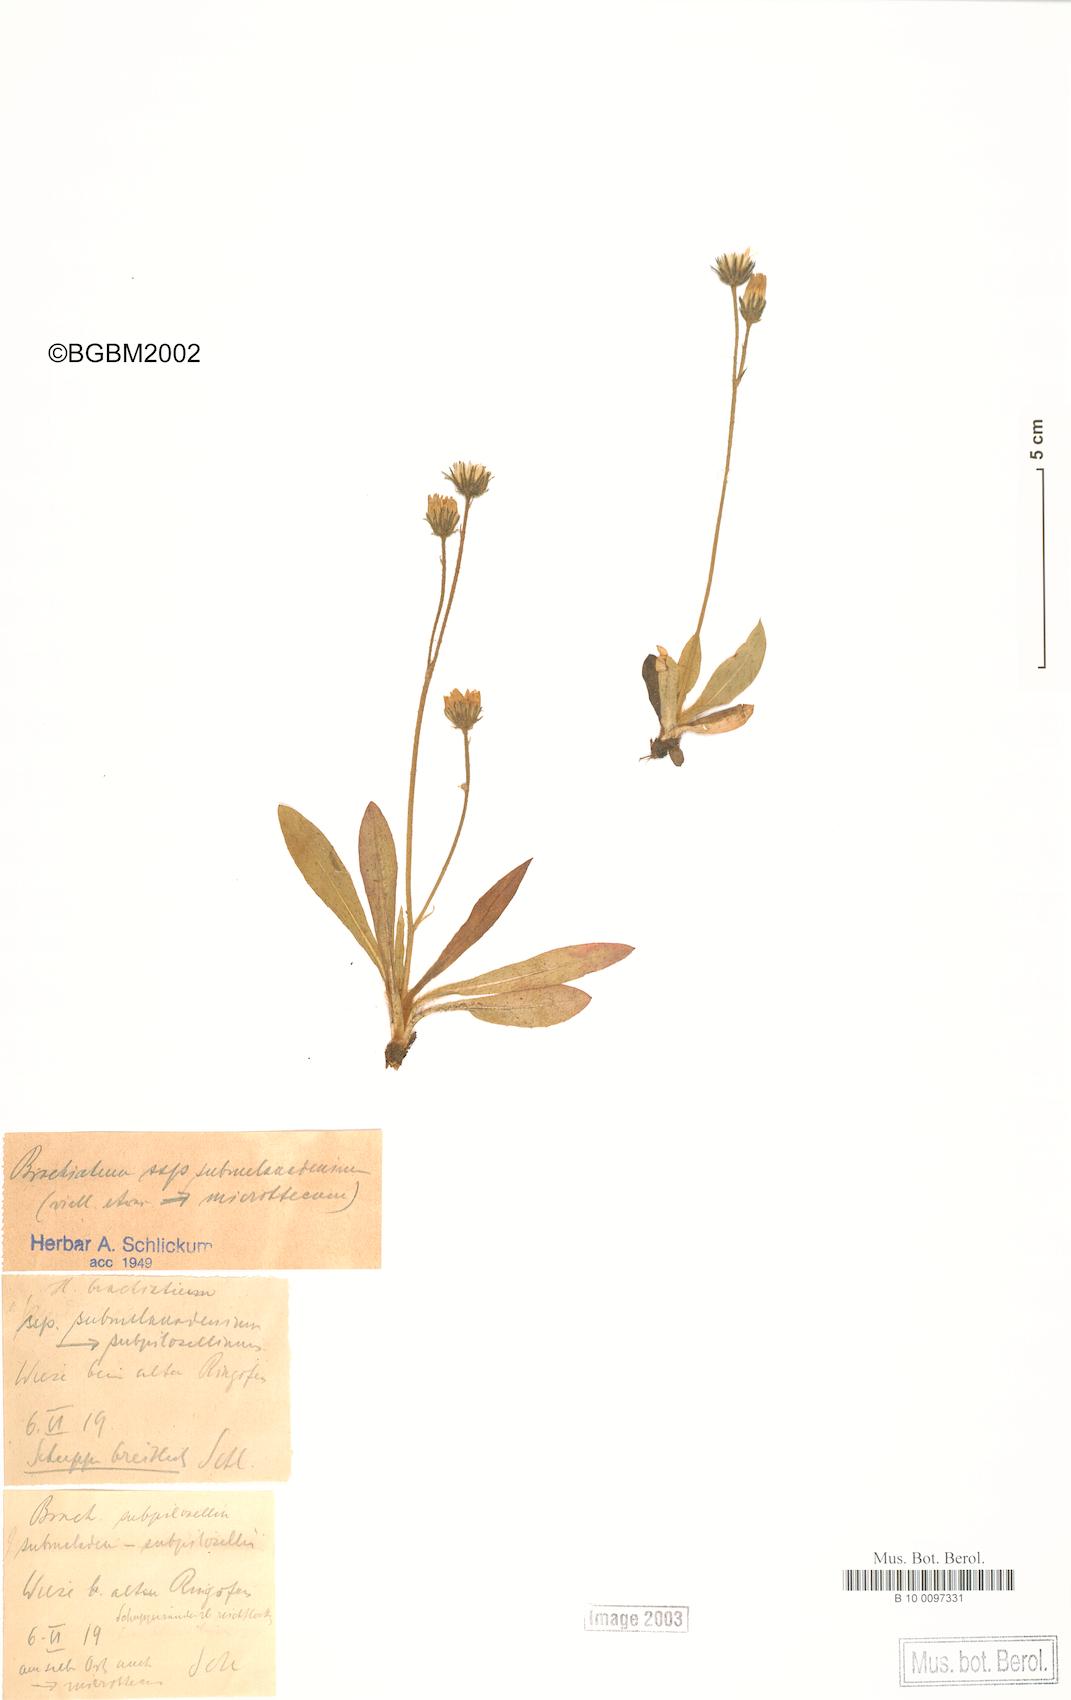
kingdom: Plantae
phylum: Tracheophyta
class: Magnoliopsida
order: Asterales
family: Asteraceae
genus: Pilosella
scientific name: Pilosella acutifolia
